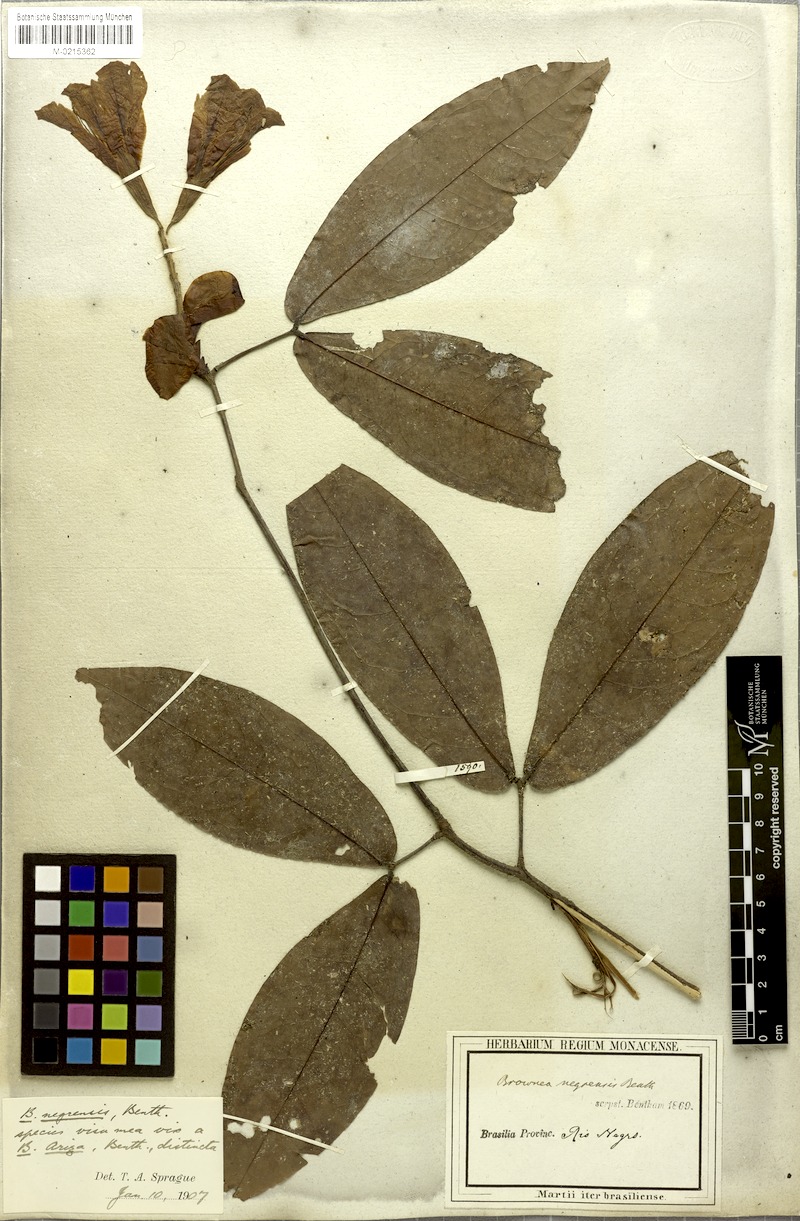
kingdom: Plantae
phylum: Tracheophyta
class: Magnoliopsida
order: Fabales
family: Fabaceae
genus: Brownea
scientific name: Brownea negrensis
